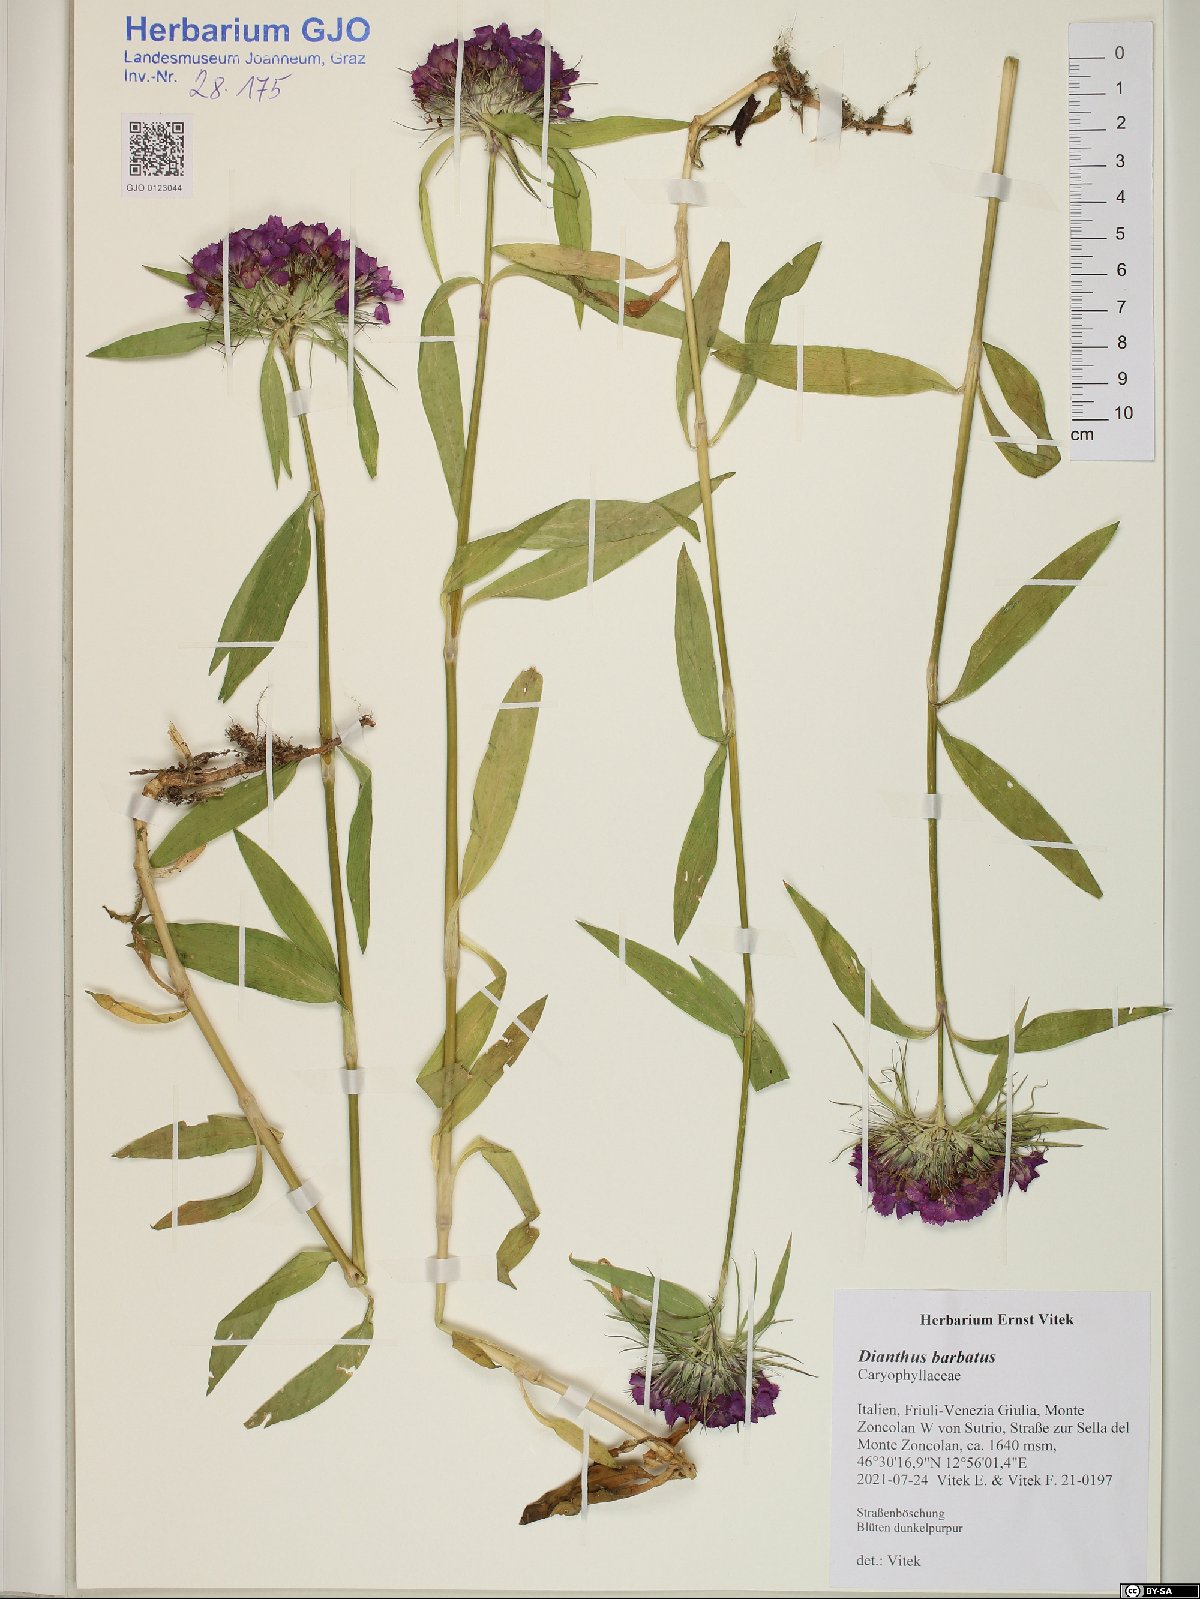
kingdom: Plantae
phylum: Tracheophyta
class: Magnoliopsida
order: Caryophyllales
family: Caryophyllaceae
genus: Dianthus
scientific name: Dianthus barbatus
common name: Sweet-william
